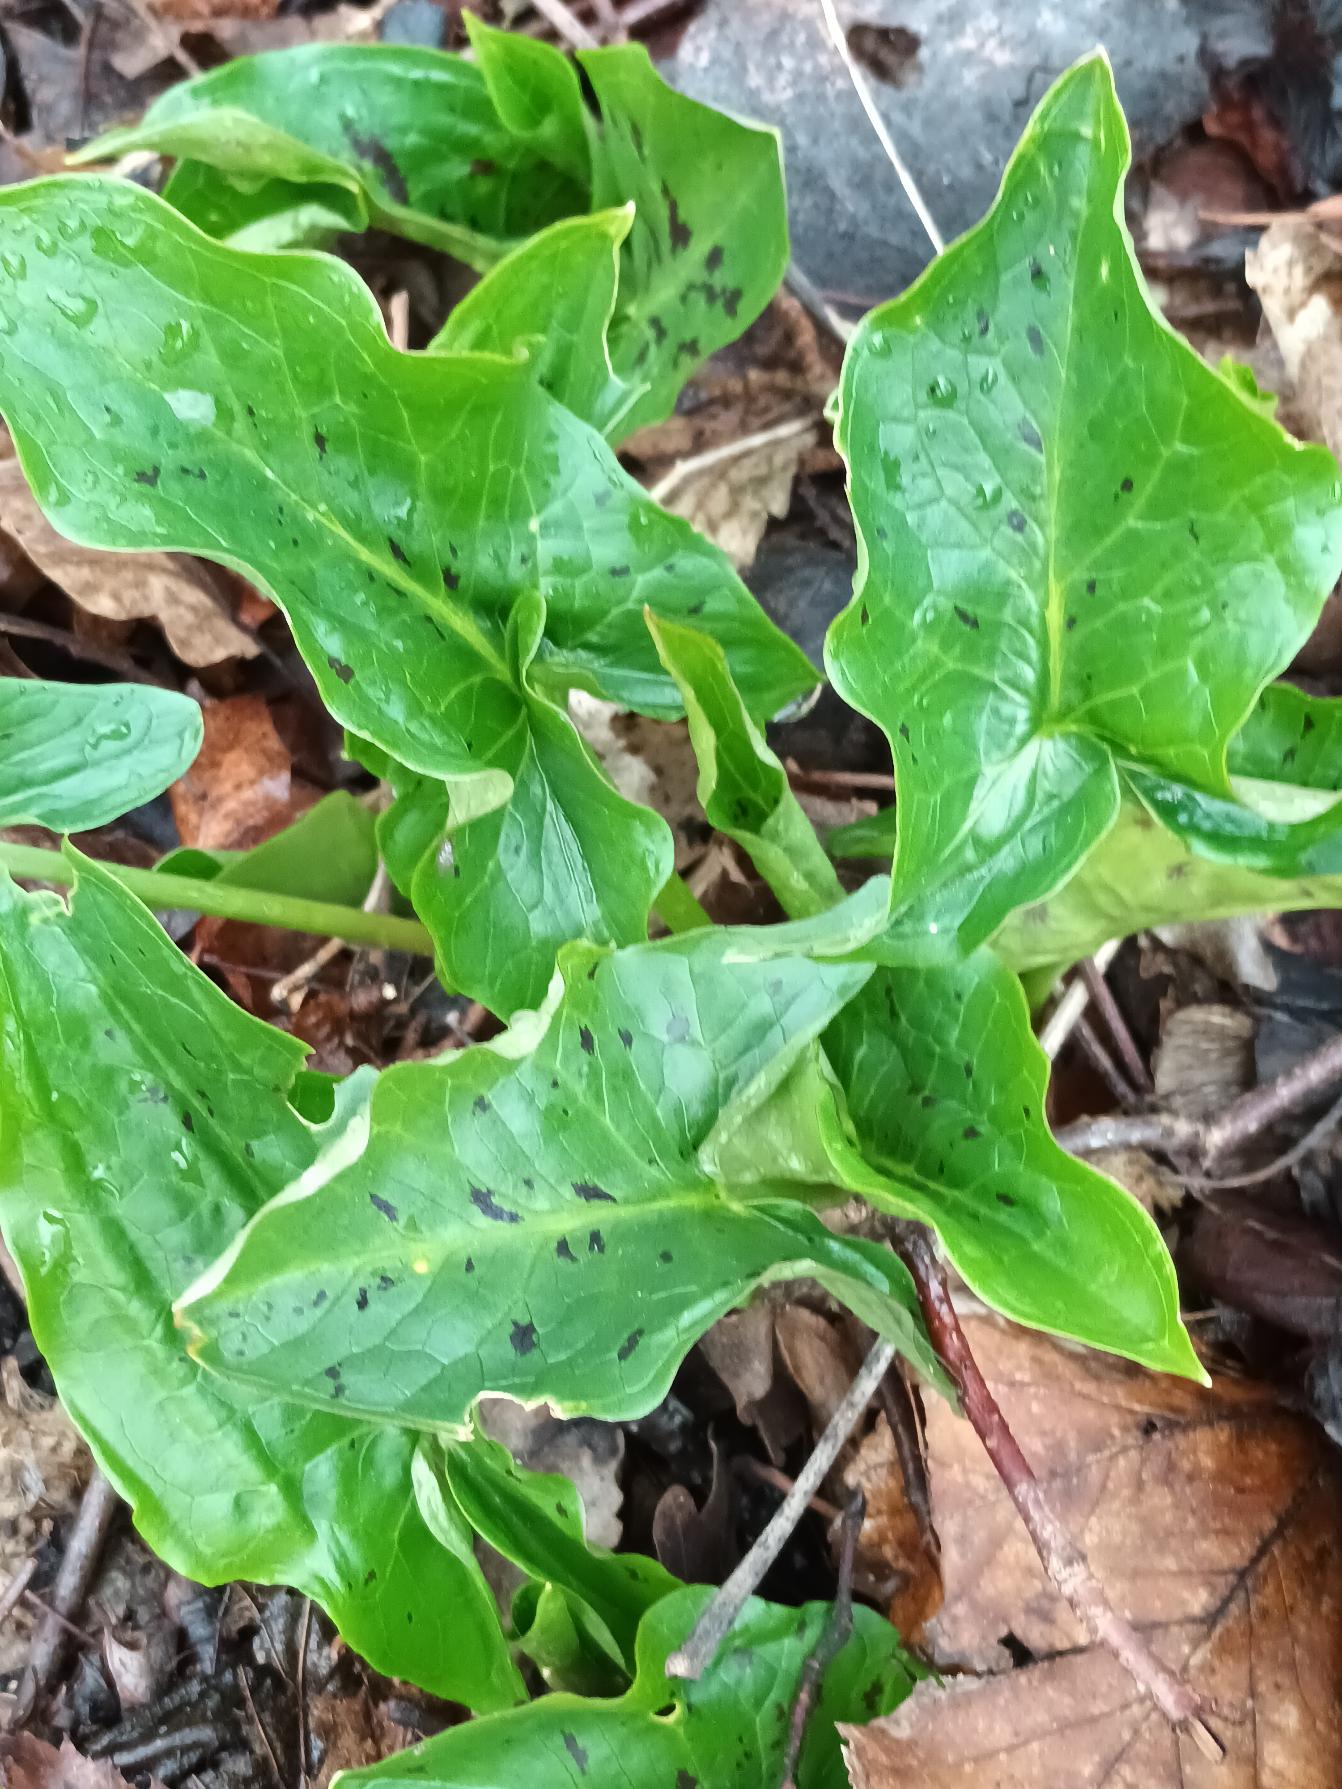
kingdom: Plantae
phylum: Tracheophyta
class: Liliopsida
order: Alismatales
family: Araceae
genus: Arum
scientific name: Arum maculatum
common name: Plettet arum
